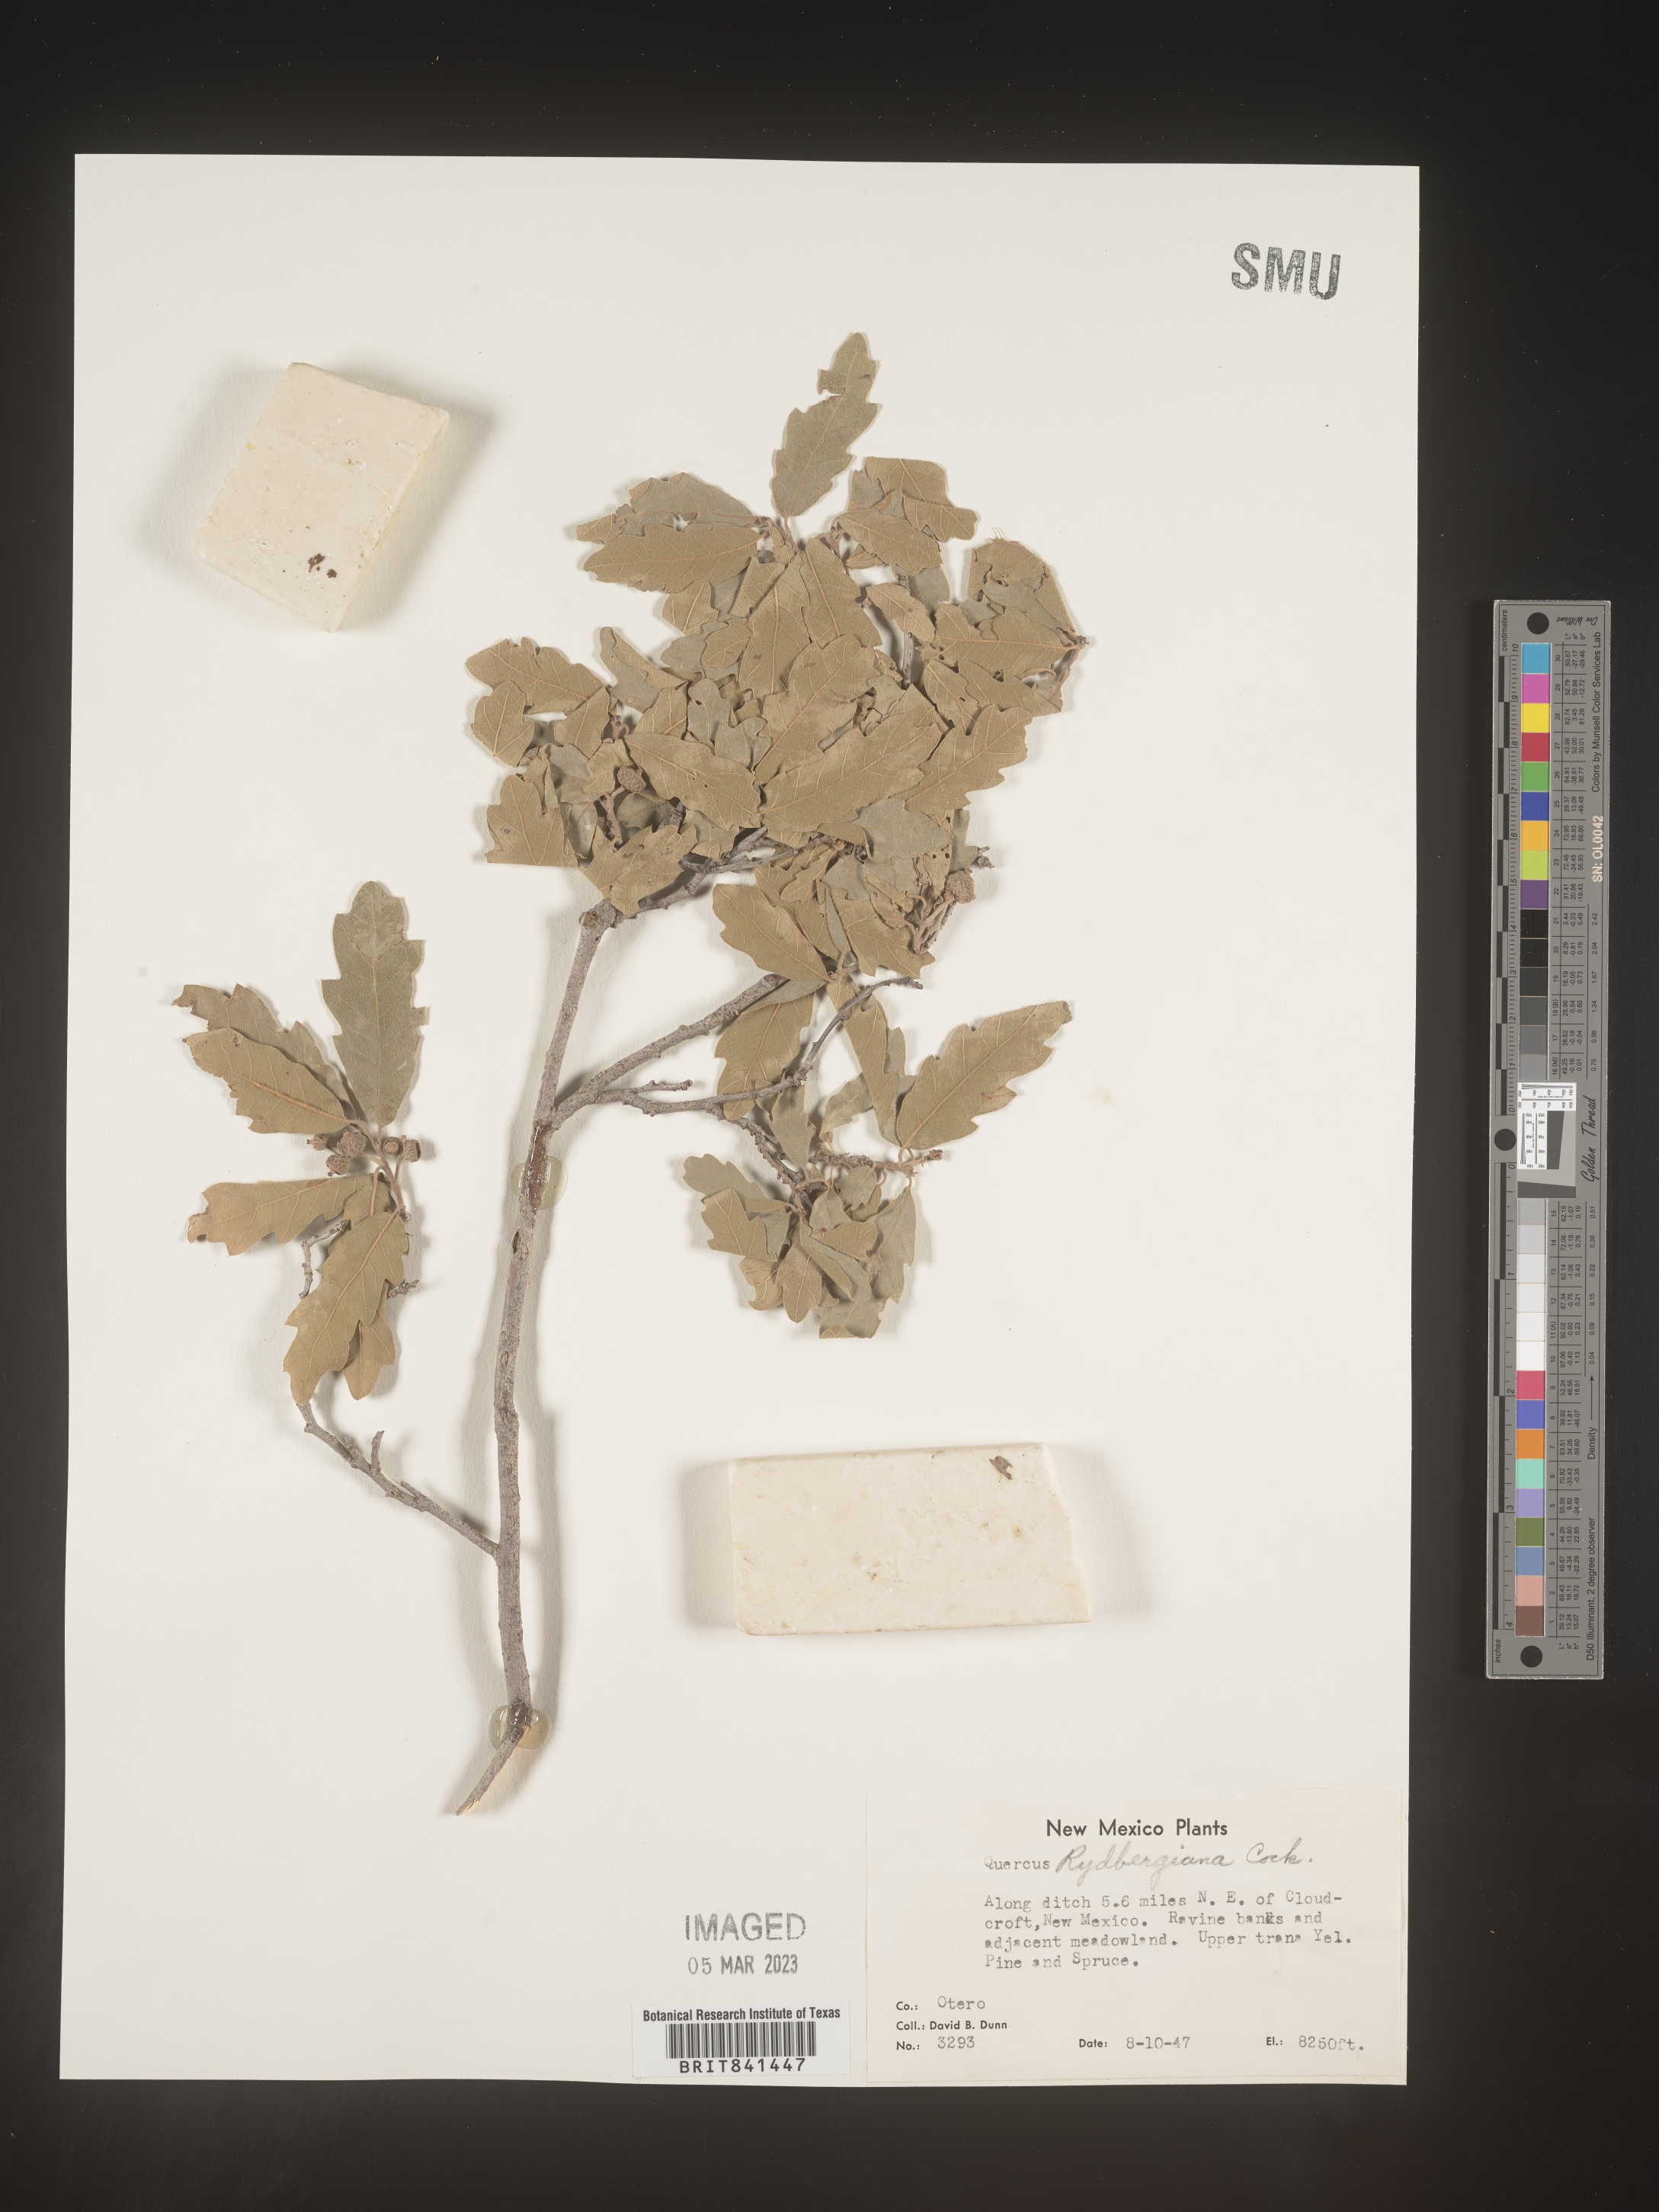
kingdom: Plantae
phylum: Tracheophyta
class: Magnoliopsida
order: Fagales
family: Fagaceae
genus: Quercus
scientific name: Quercus undulata
